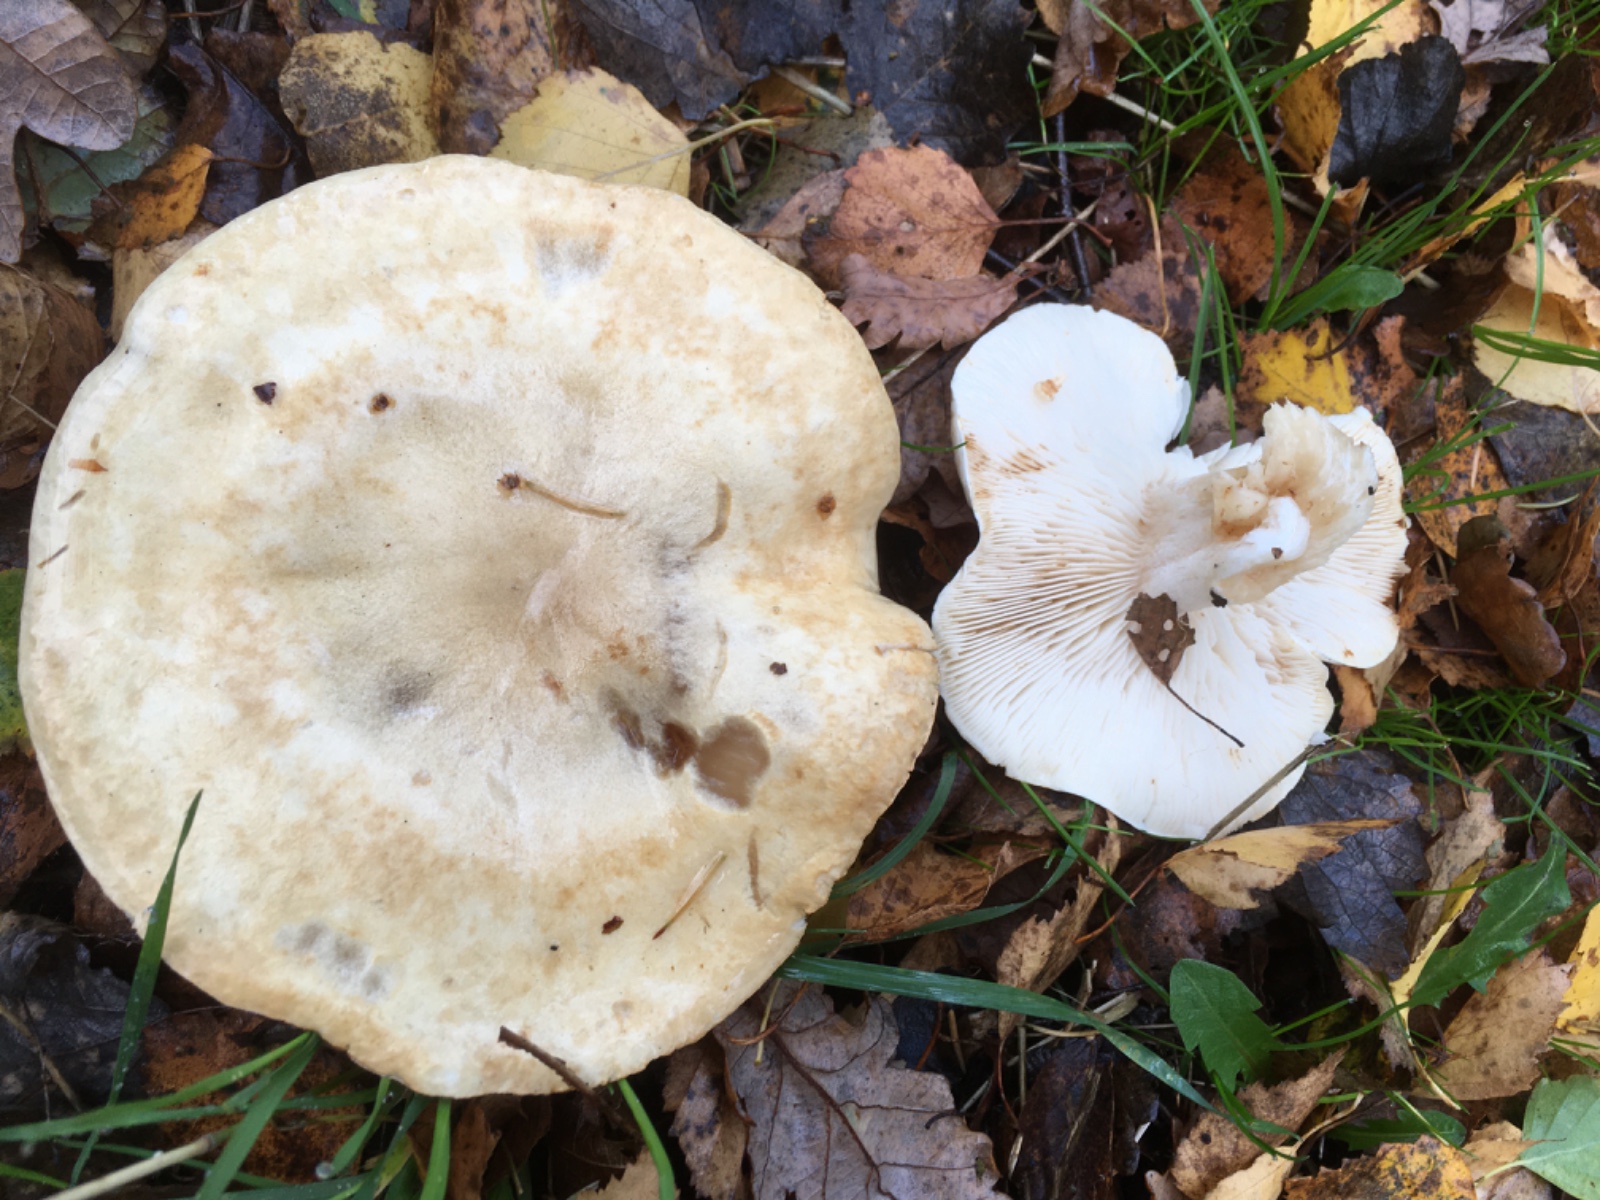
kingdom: Fungi
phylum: Basidiomycota
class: Agaricomycetes
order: Agaricales
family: Tricholomataceae
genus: Tricholoma
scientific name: Tricholoma stiparophyllum
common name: hvid ridderhat
